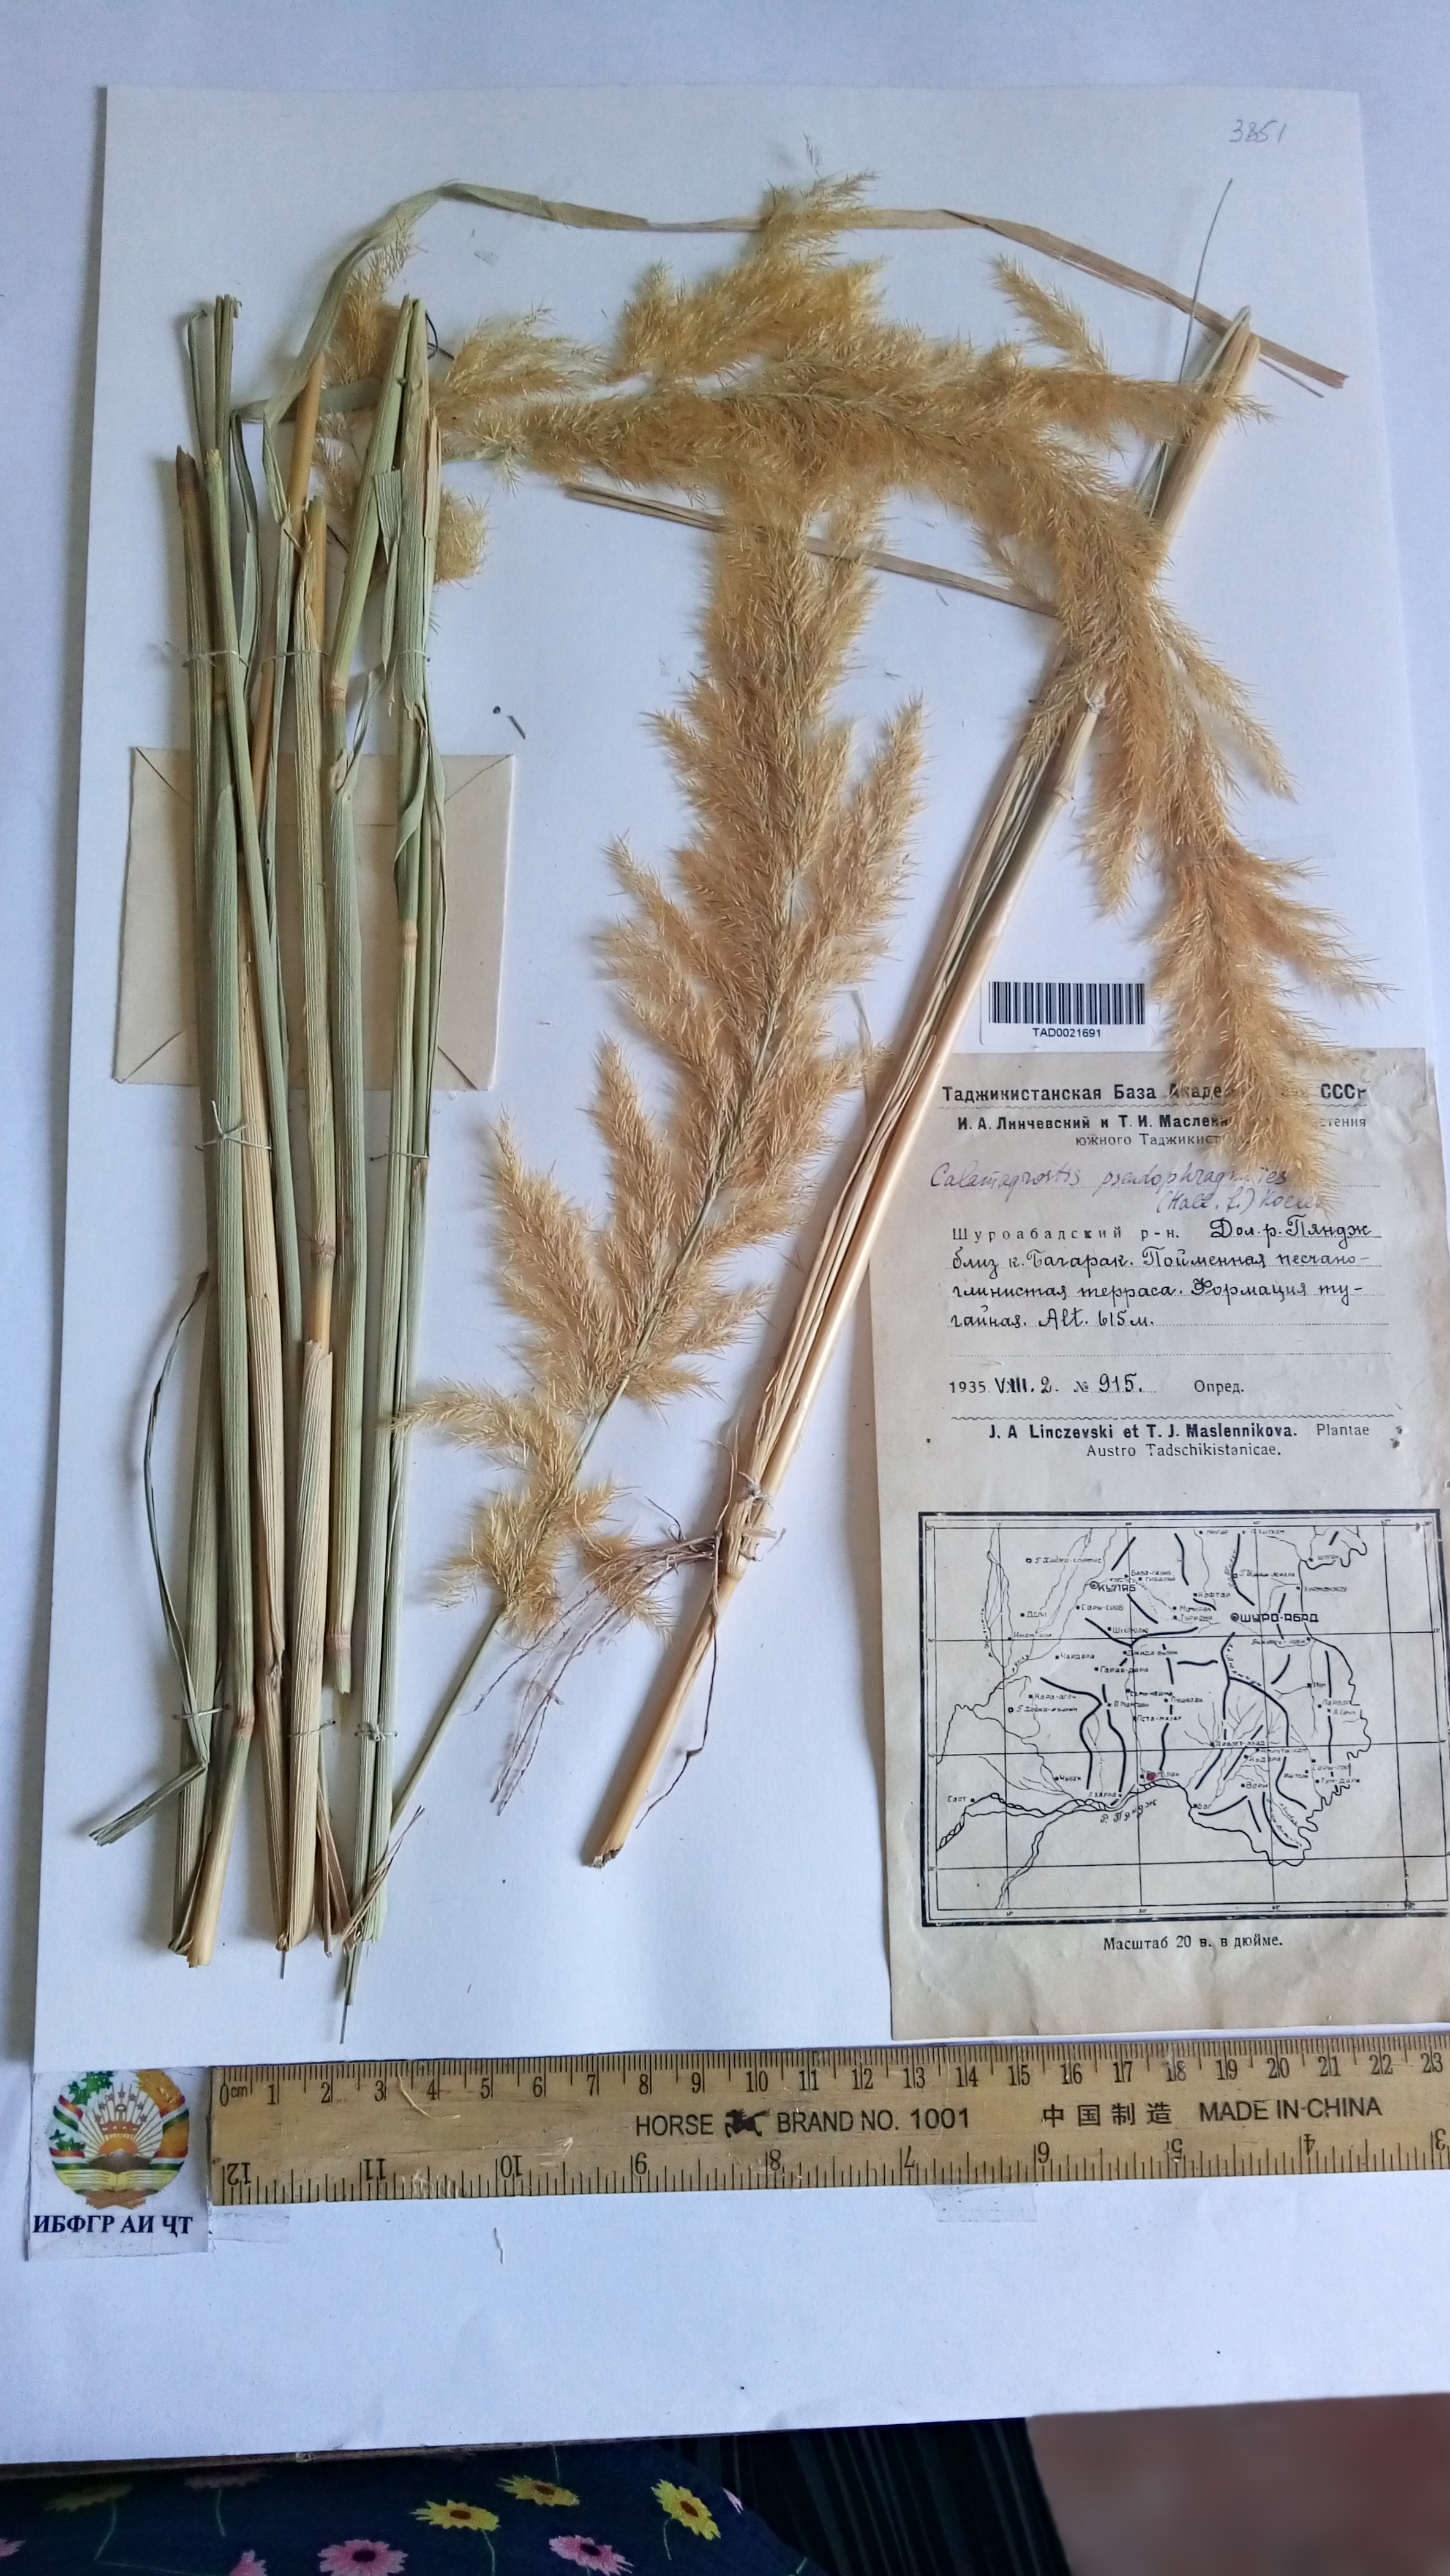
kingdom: Plantae
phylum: Tracheophyta
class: Liliopsida
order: Poales
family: Poaceae
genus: Calamagrostis
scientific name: Calamagrostis pseudophragmites
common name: Coastal small-reed
